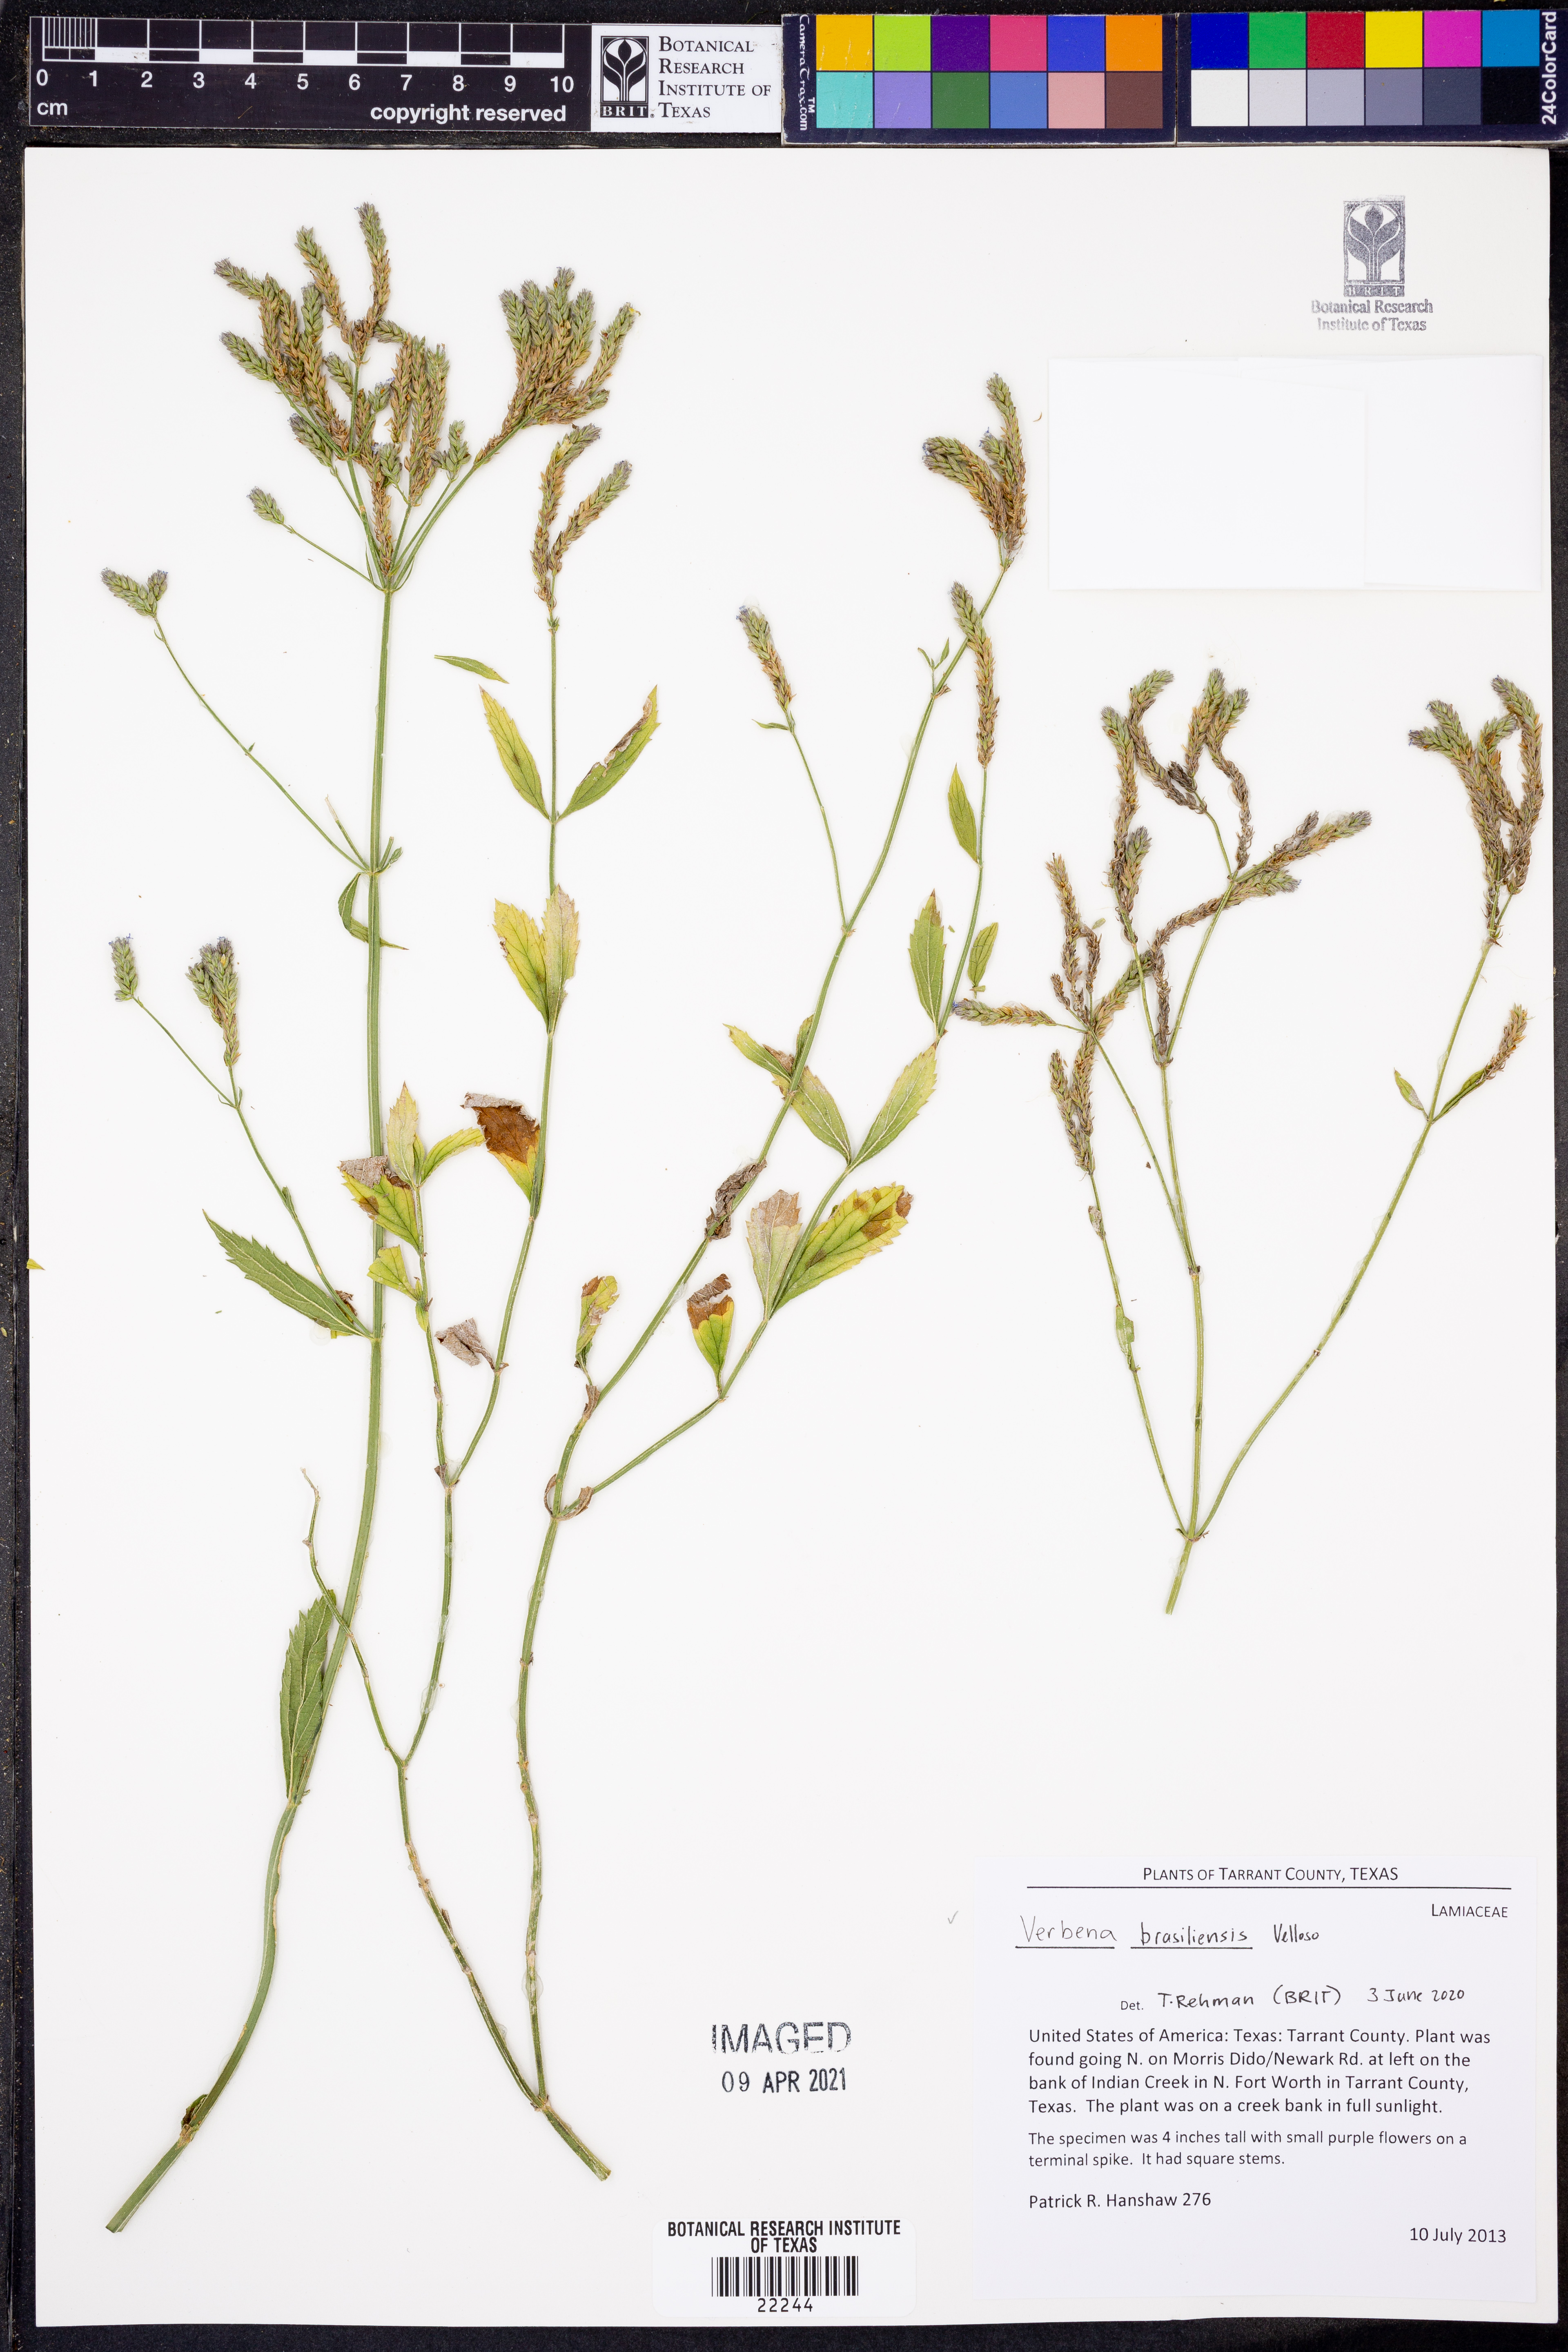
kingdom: Plantae
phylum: Tracheophyta
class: Magnoliopsida
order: Lamiales
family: Verbenaceae
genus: Verbena
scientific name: Verbena brasiliensis
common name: Brazilian vervain
